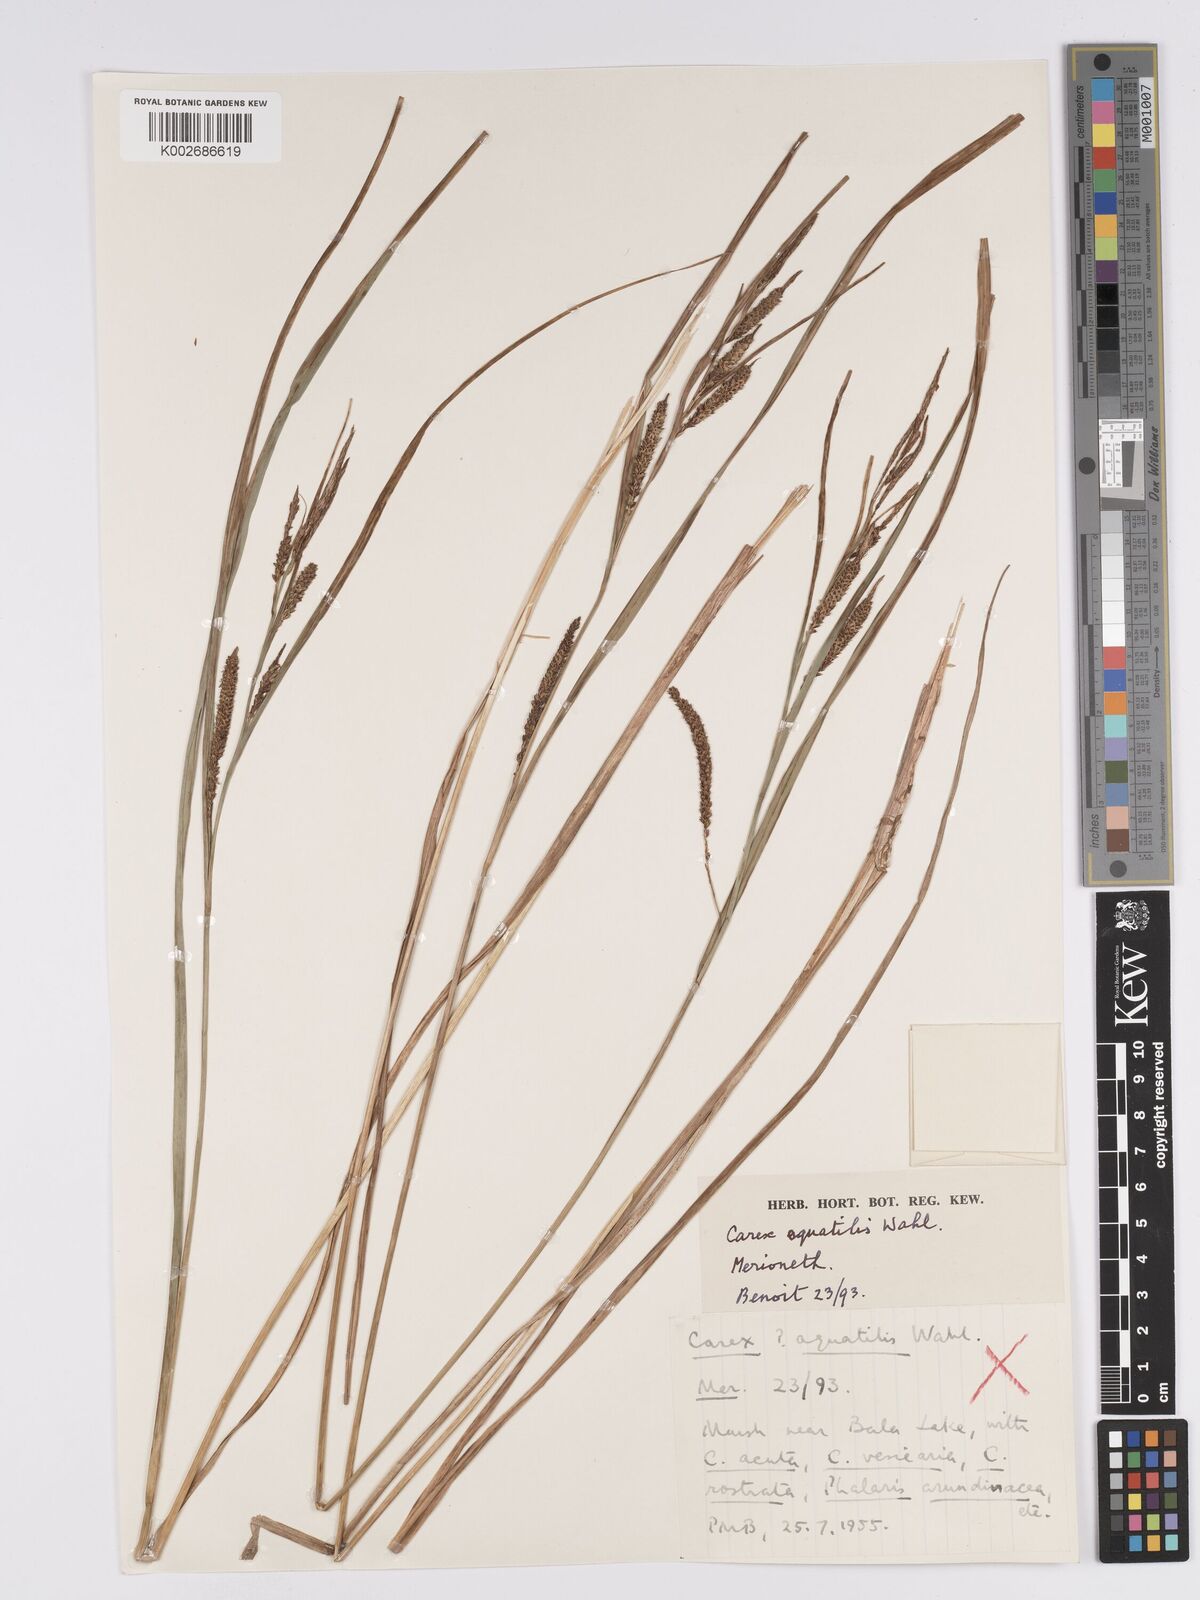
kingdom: Plantae
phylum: Tracheophyta
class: Liliopsida
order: Poales
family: Cyperaceae
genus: Carex
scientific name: Carex aquatilis
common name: Water sedge
